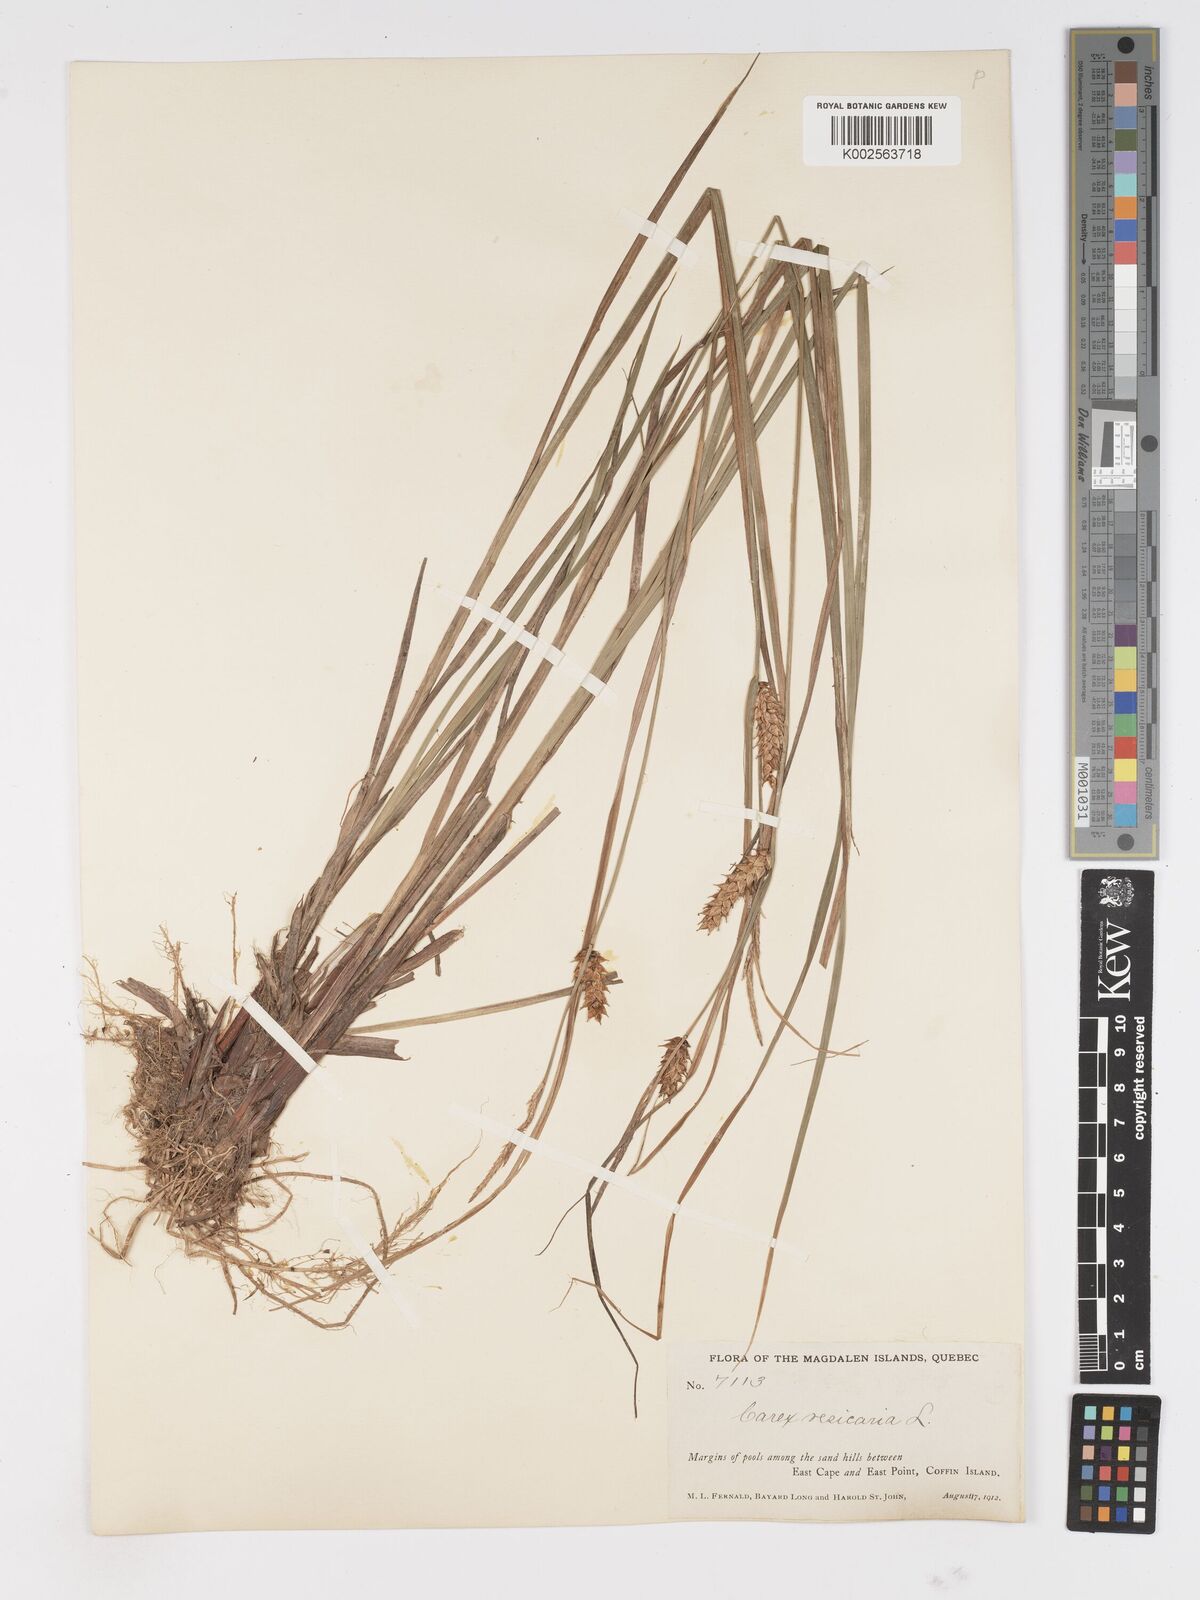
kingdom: Plantae
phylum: Tracheophyta
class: Liliopsida
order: Poales
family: Cyperaceae
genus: Carex
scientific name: Carex vesicaria
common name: Bladder-sedge
